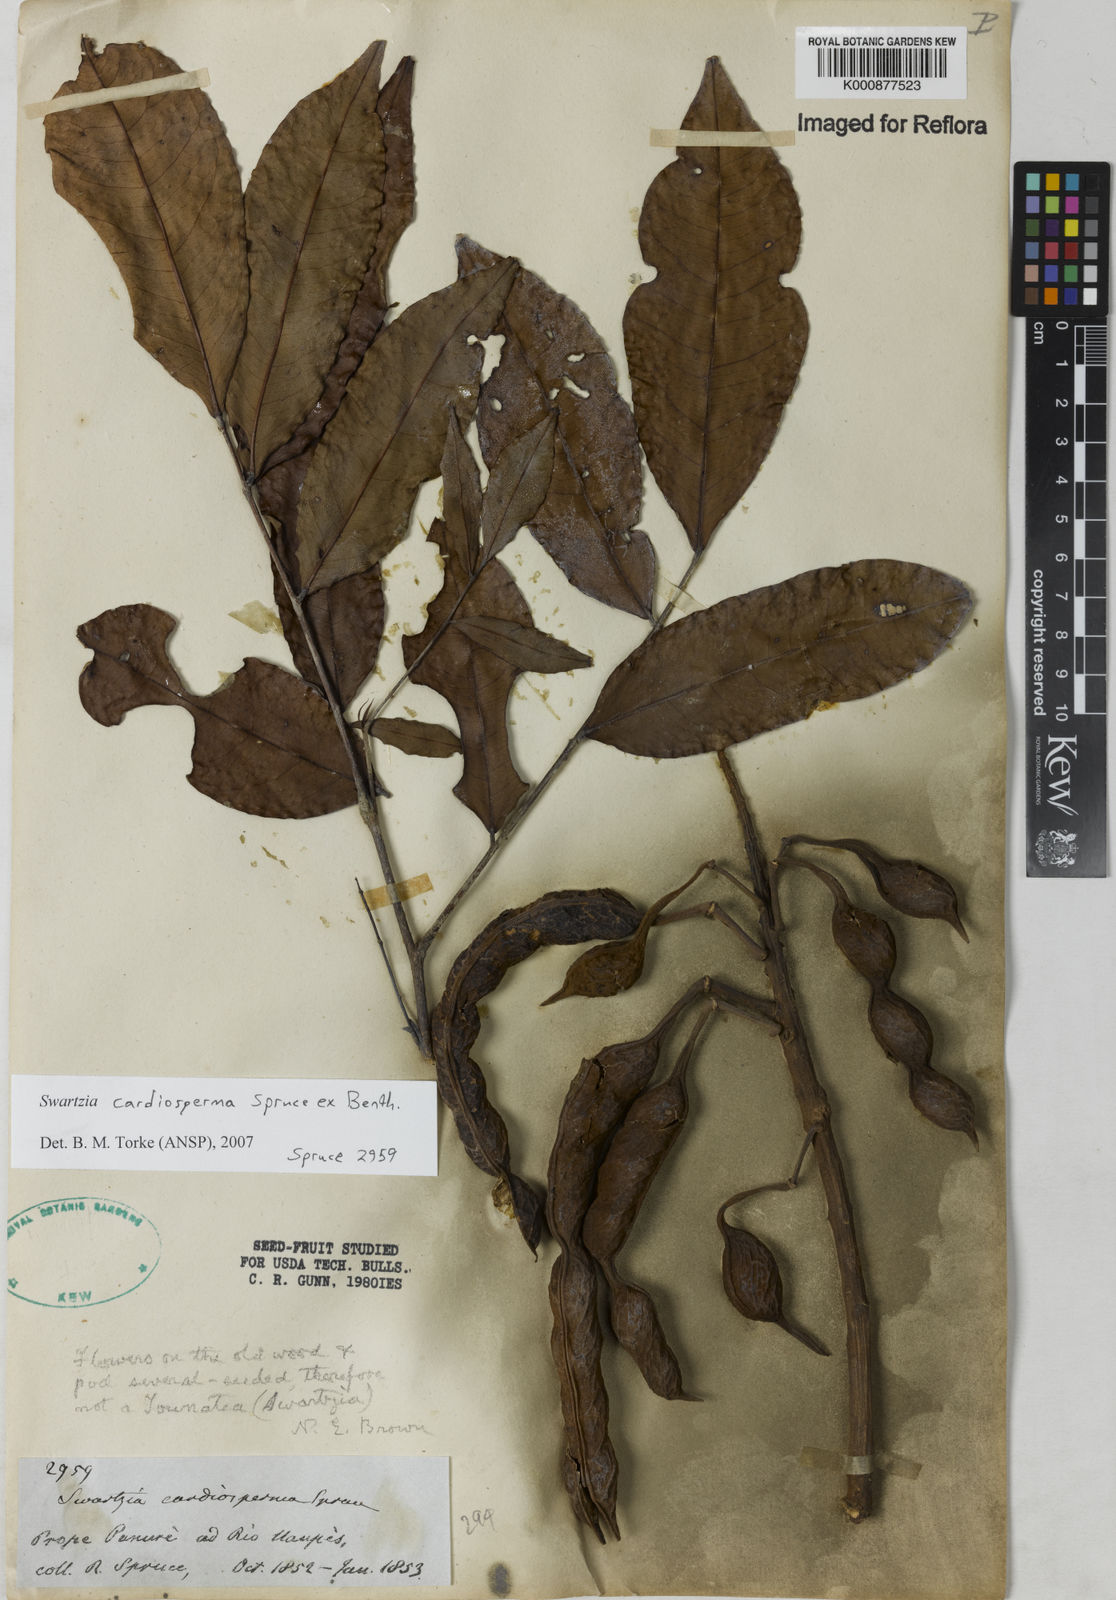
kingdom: Plantae
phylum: Tracheophyta
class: Magnoliopsida
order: Fabales
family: Fabaceae
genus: Swartzia
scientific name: Swartzia cardiosperma
